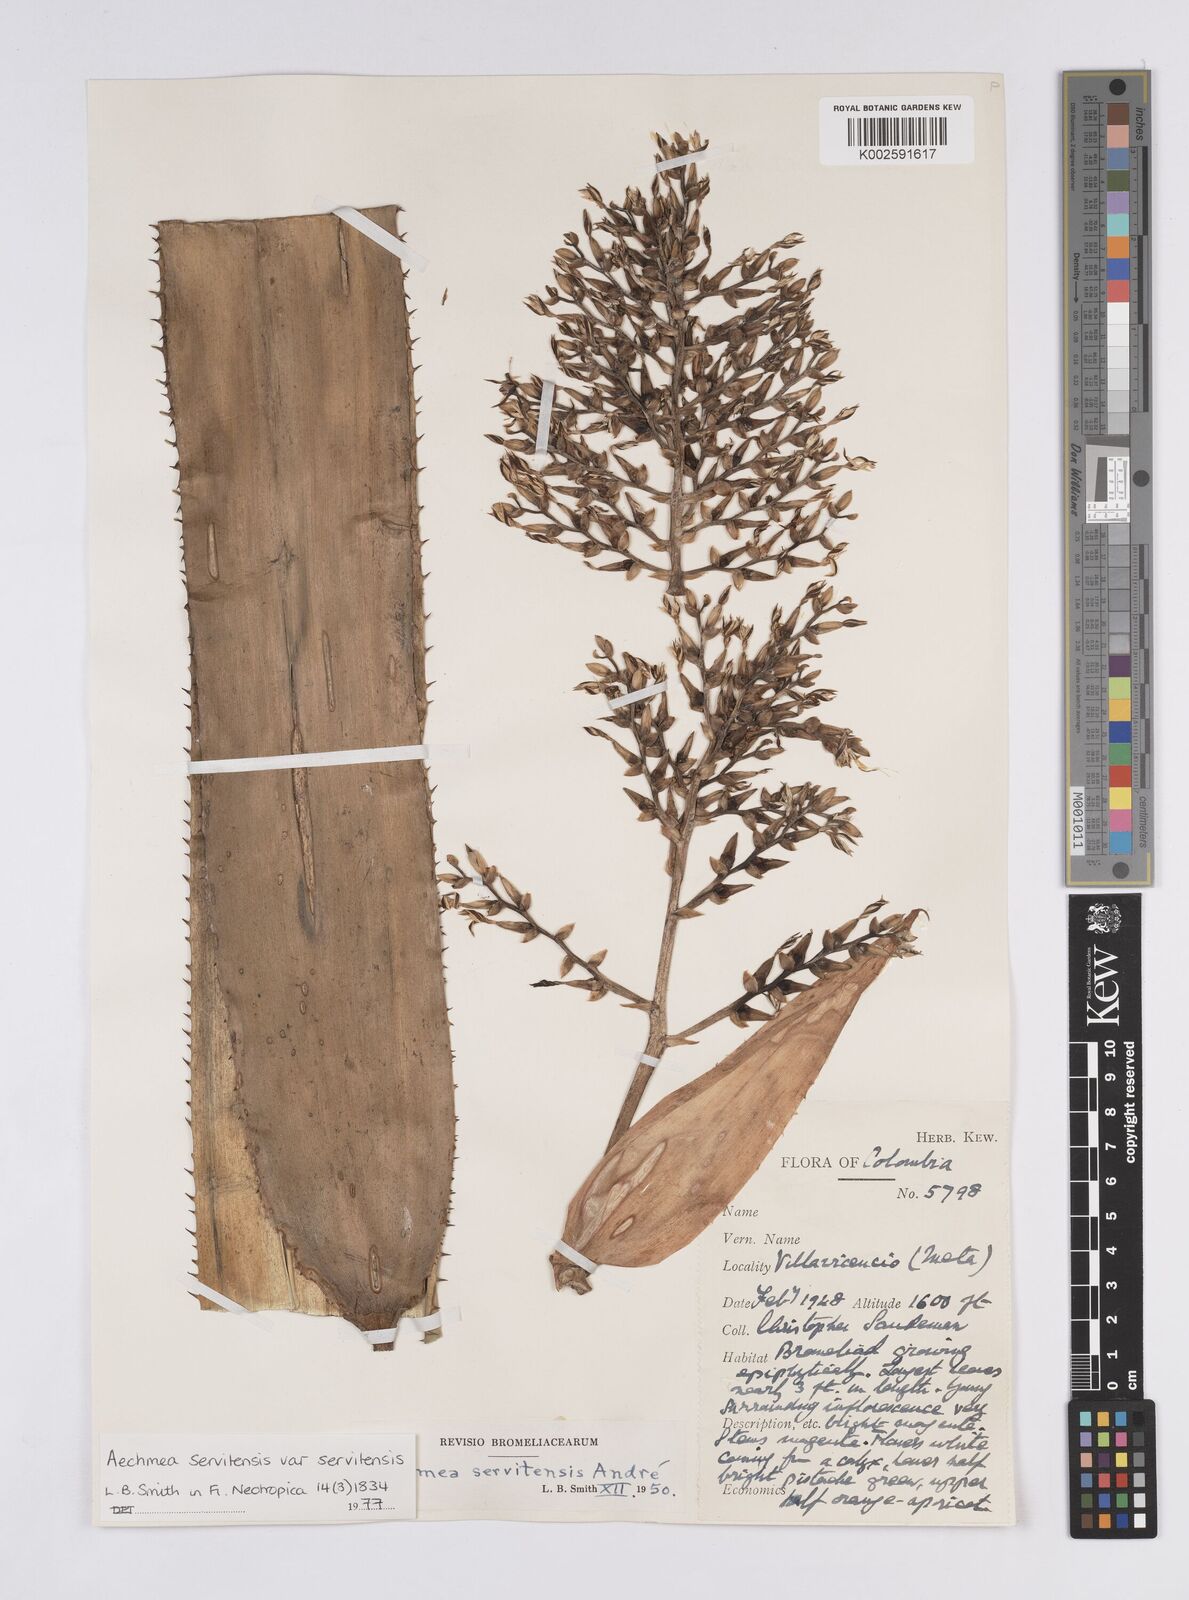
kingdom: Plantae
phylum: Tracheophyta
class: Liliopsida
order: Poales
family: Bromeliaceae
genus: Aechmea
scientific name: Aechmea servitensis
